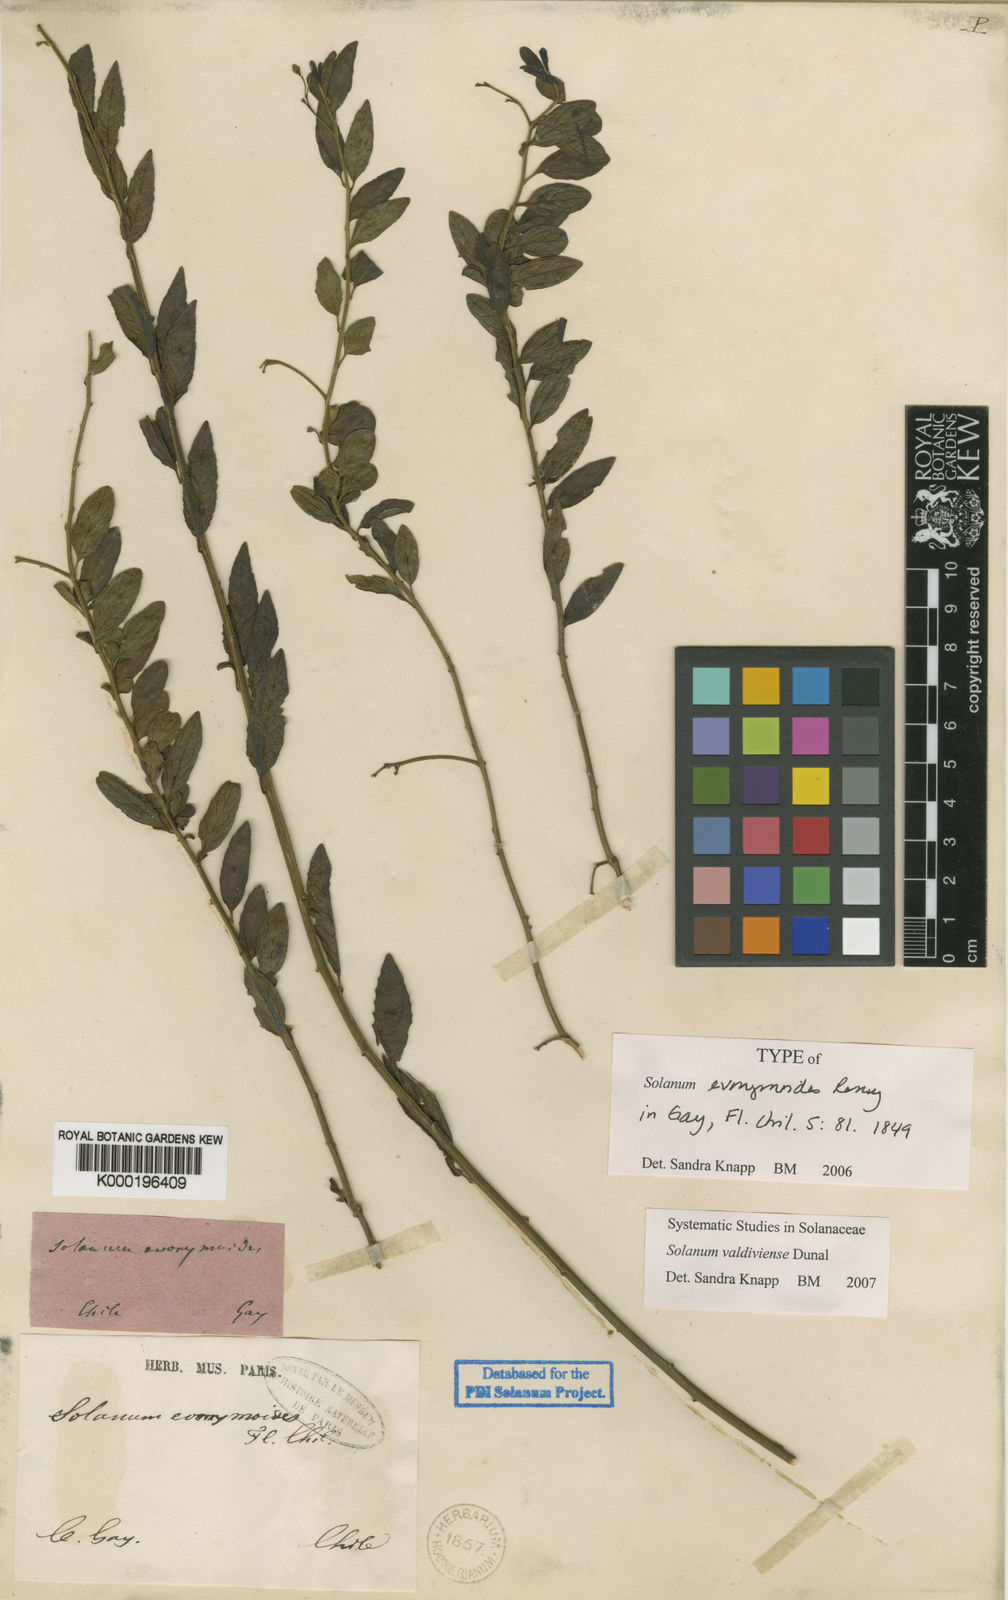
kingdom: Plantae
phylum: Tracheophyta
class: Magnoliopsida
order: Solanales
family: Solanaceae
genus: Solanum
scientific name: Solanum valdiviense
